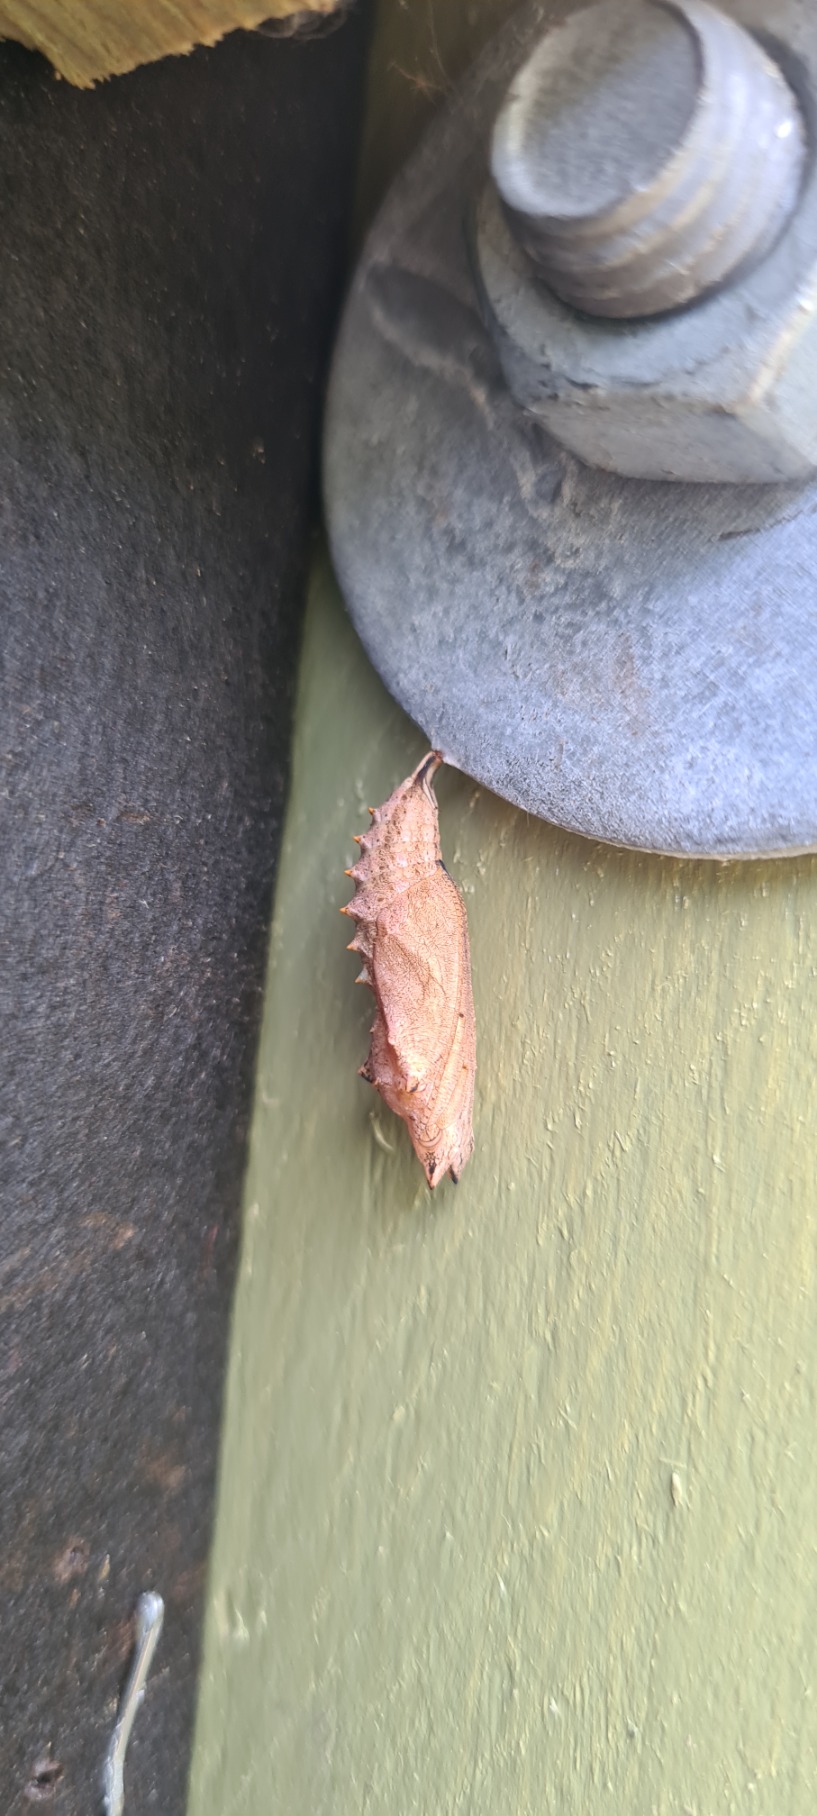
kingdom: Animalia
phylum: Arthropoda
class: Insecta
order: Lepidoptera
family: Nymphalidae
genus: Aglais
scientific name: Aglais urticae
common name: Nældens takvinge
